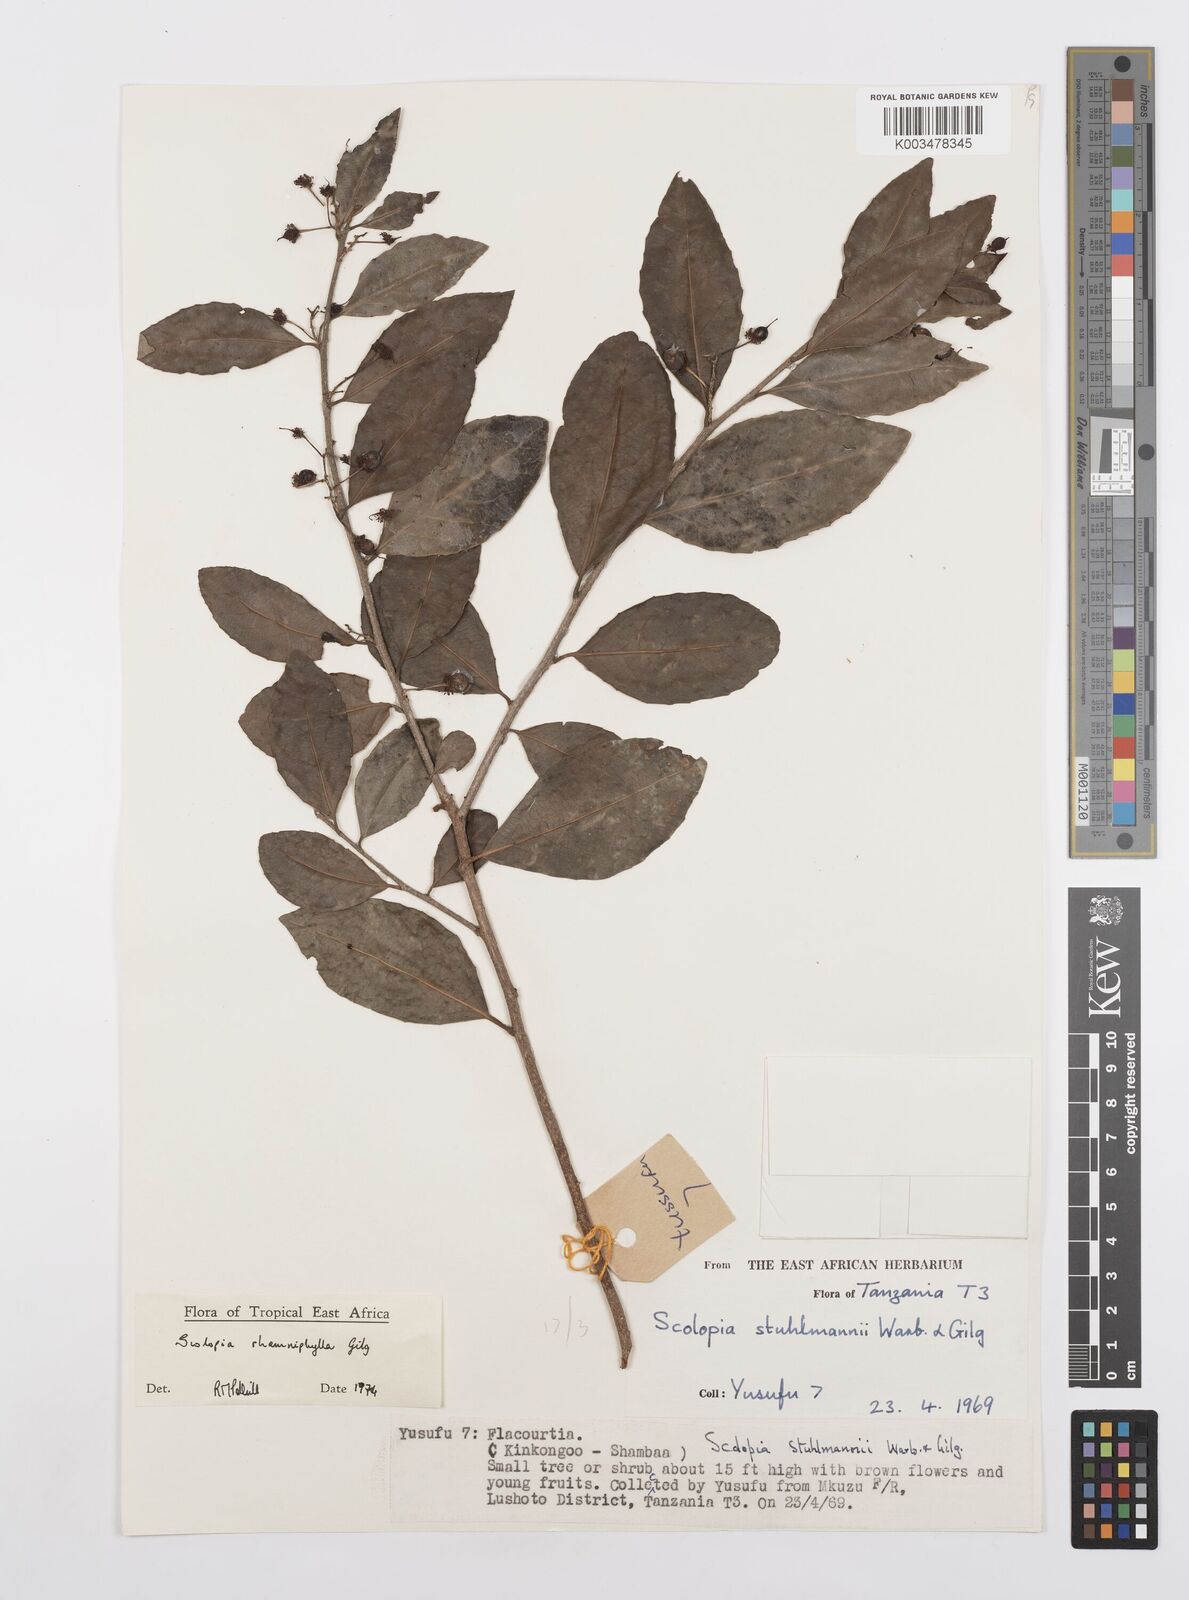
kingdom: Plantae
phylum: Tracheophyta
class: Magnoliopsida
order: Malpighiales
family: Salicaceae
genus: Scolopia
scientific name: Scolopia rhamniphylla
